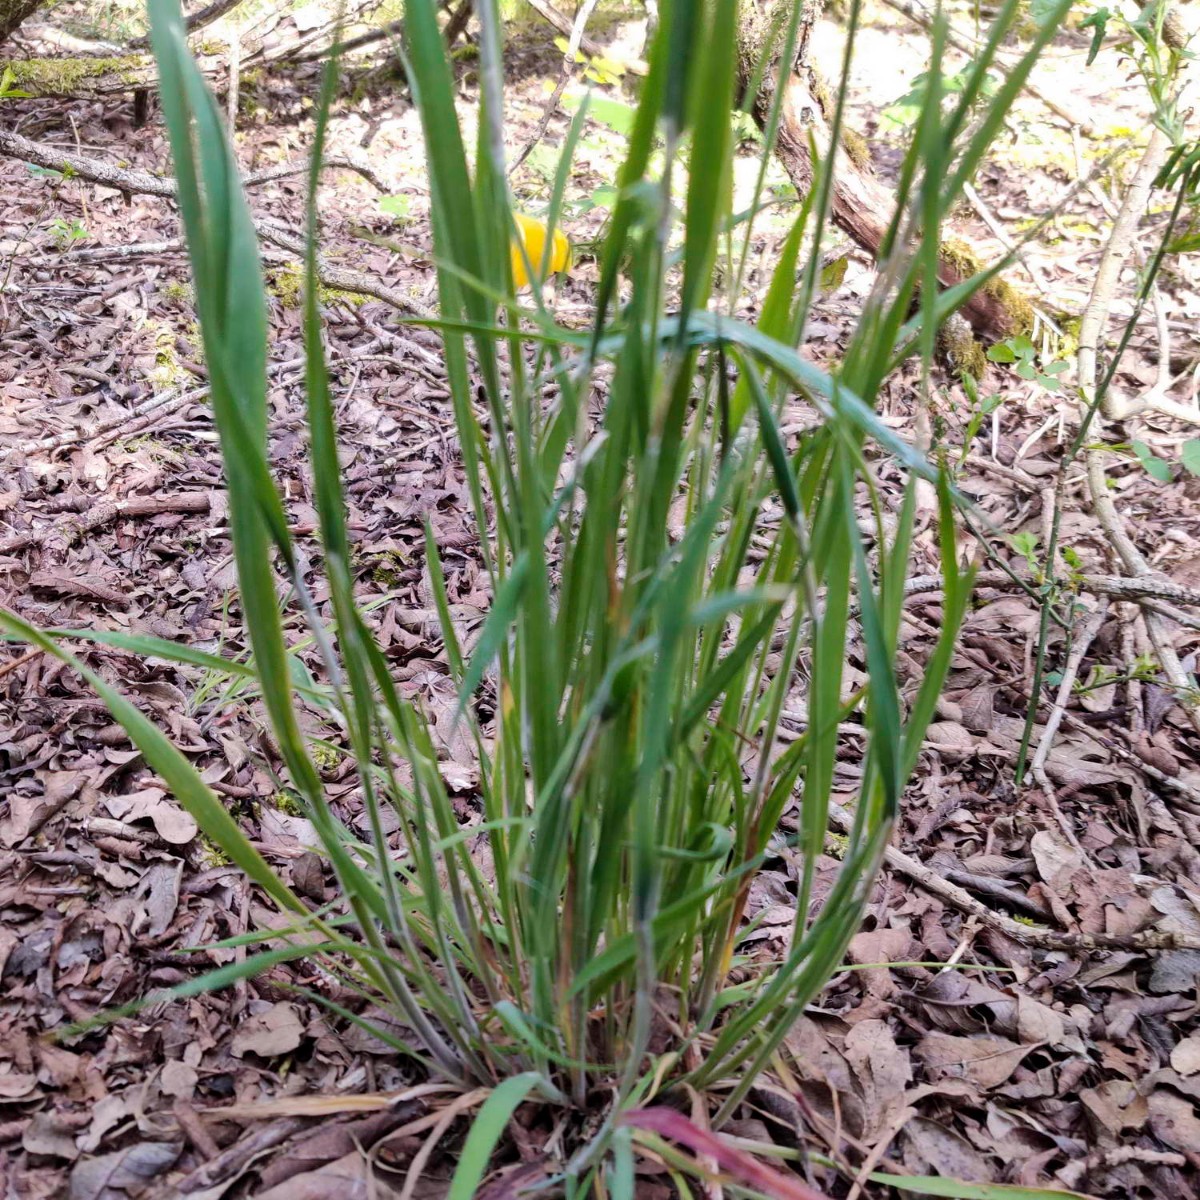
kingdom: Fungi
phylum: Ascomycota
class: Sordariomycetes
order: Hypocreales
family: Clavicipitaceae
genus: Epichloe
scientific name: Epichloe clarkii
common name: fløjlsgræs-kernerør
